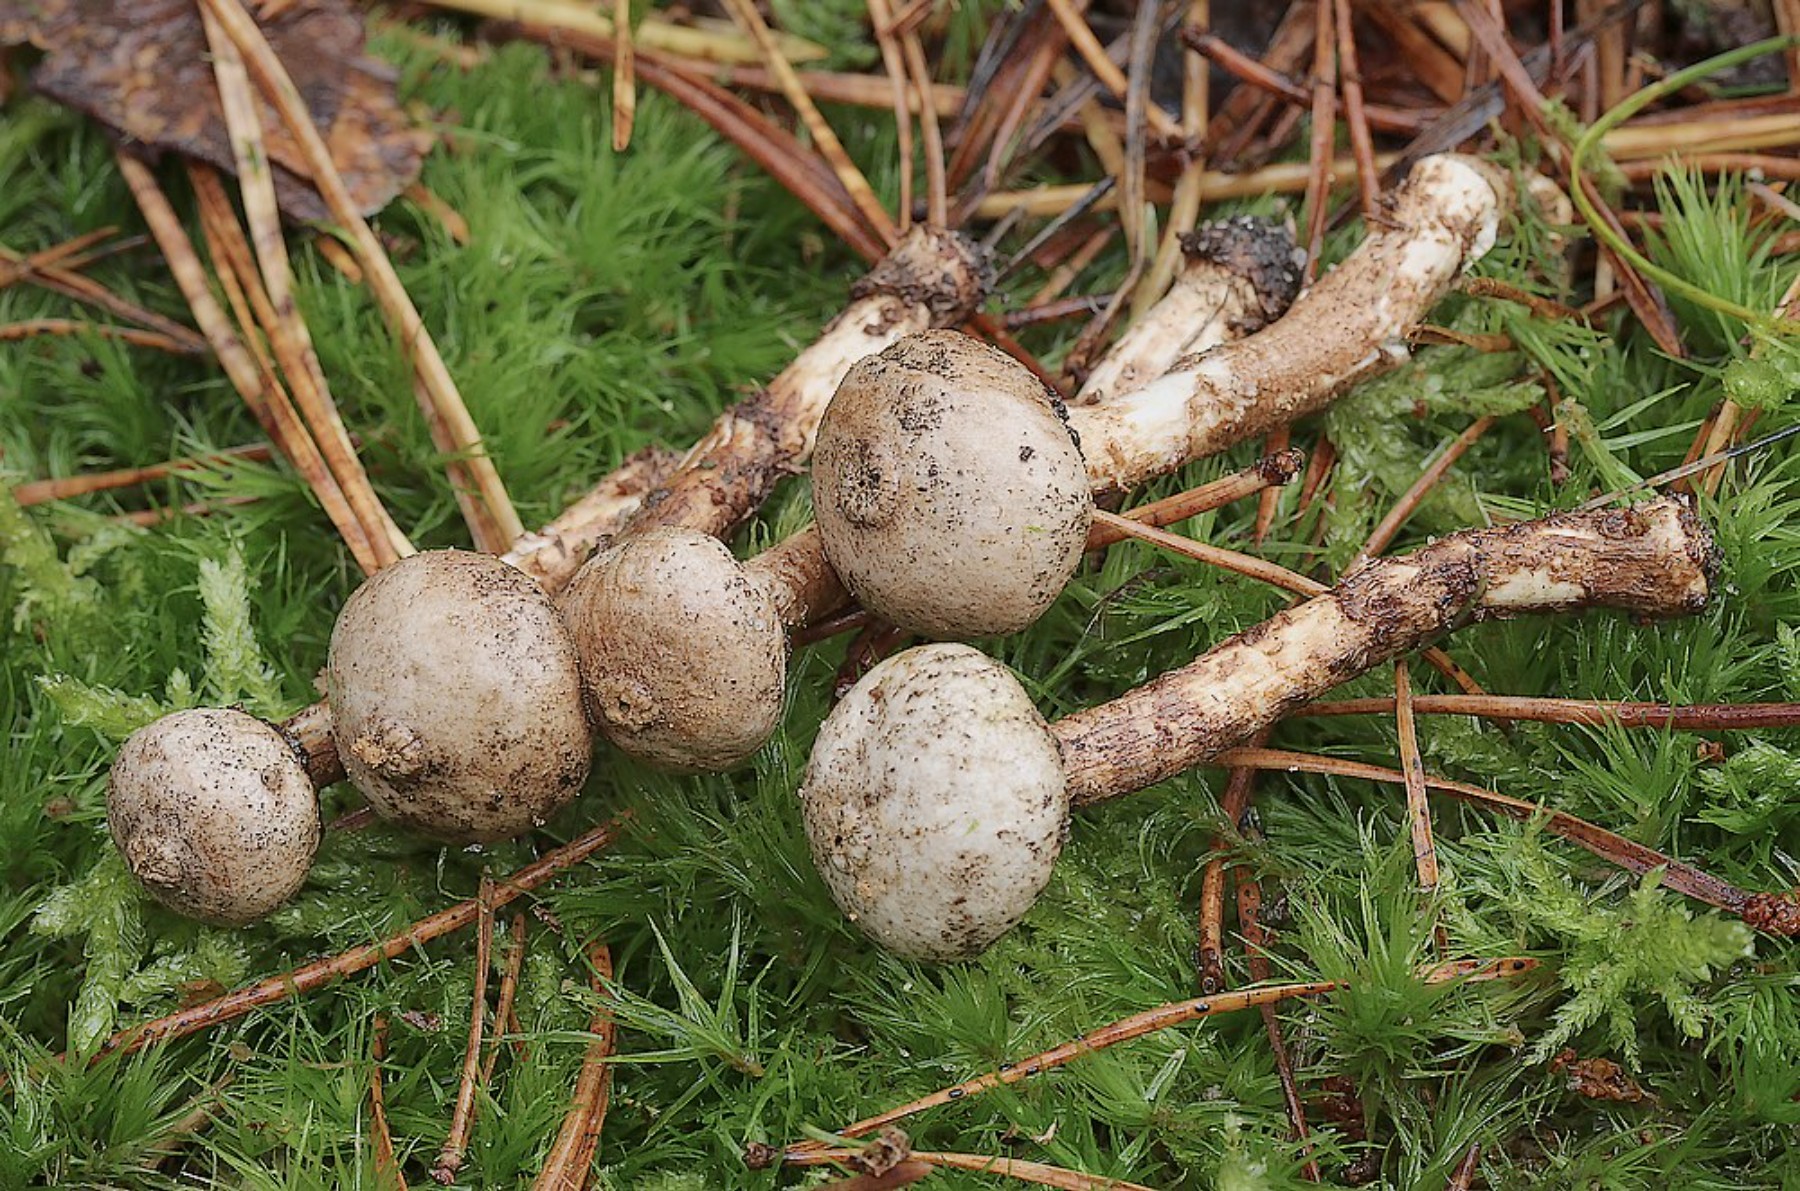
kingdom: Fungi
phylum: Basidiomycota
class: Agaricomycetes
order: Agaricales
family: Agaricaceae
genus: Tulostoma
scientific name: Tulostoma fimbriatum
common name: frynset stilkbovist
